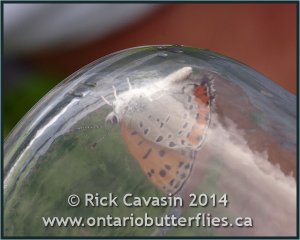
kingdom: Animalia
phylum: Arthropoda
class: Insecta
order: Lepidoptera
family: Sesiidae
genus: Sesia
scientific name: Sesia Lycaena hyllus
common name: Bronze Copper
